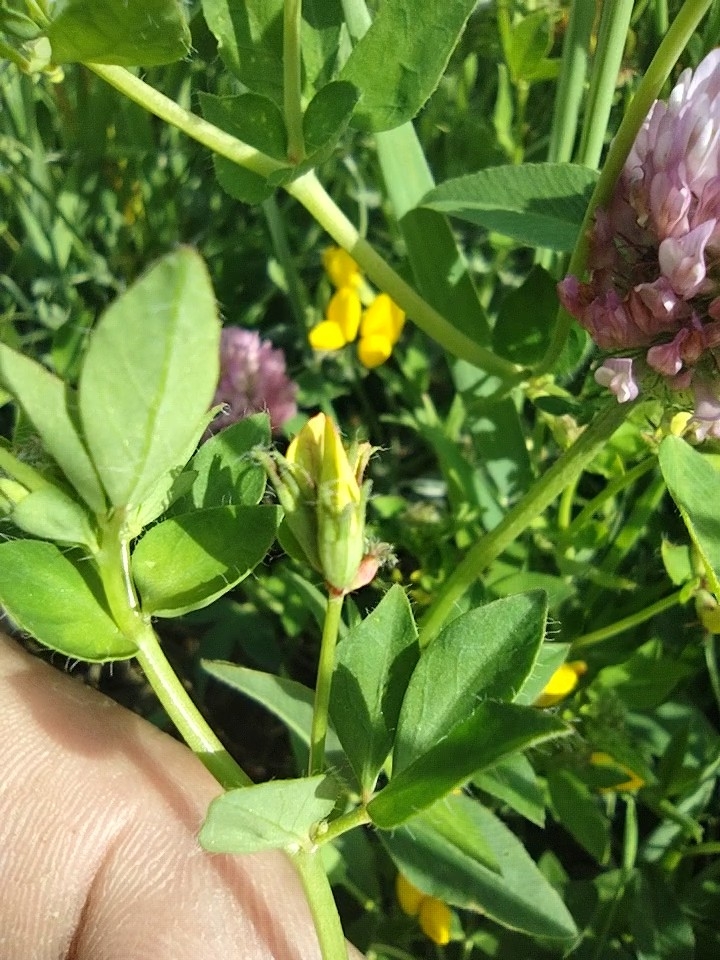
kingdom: Plantae
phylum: Tracheophyta
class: Magnoliopsida
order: Fabales
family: Fabaceae
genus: Lotus
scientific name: Lotus corniculatus
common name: Foder-kællingetand
